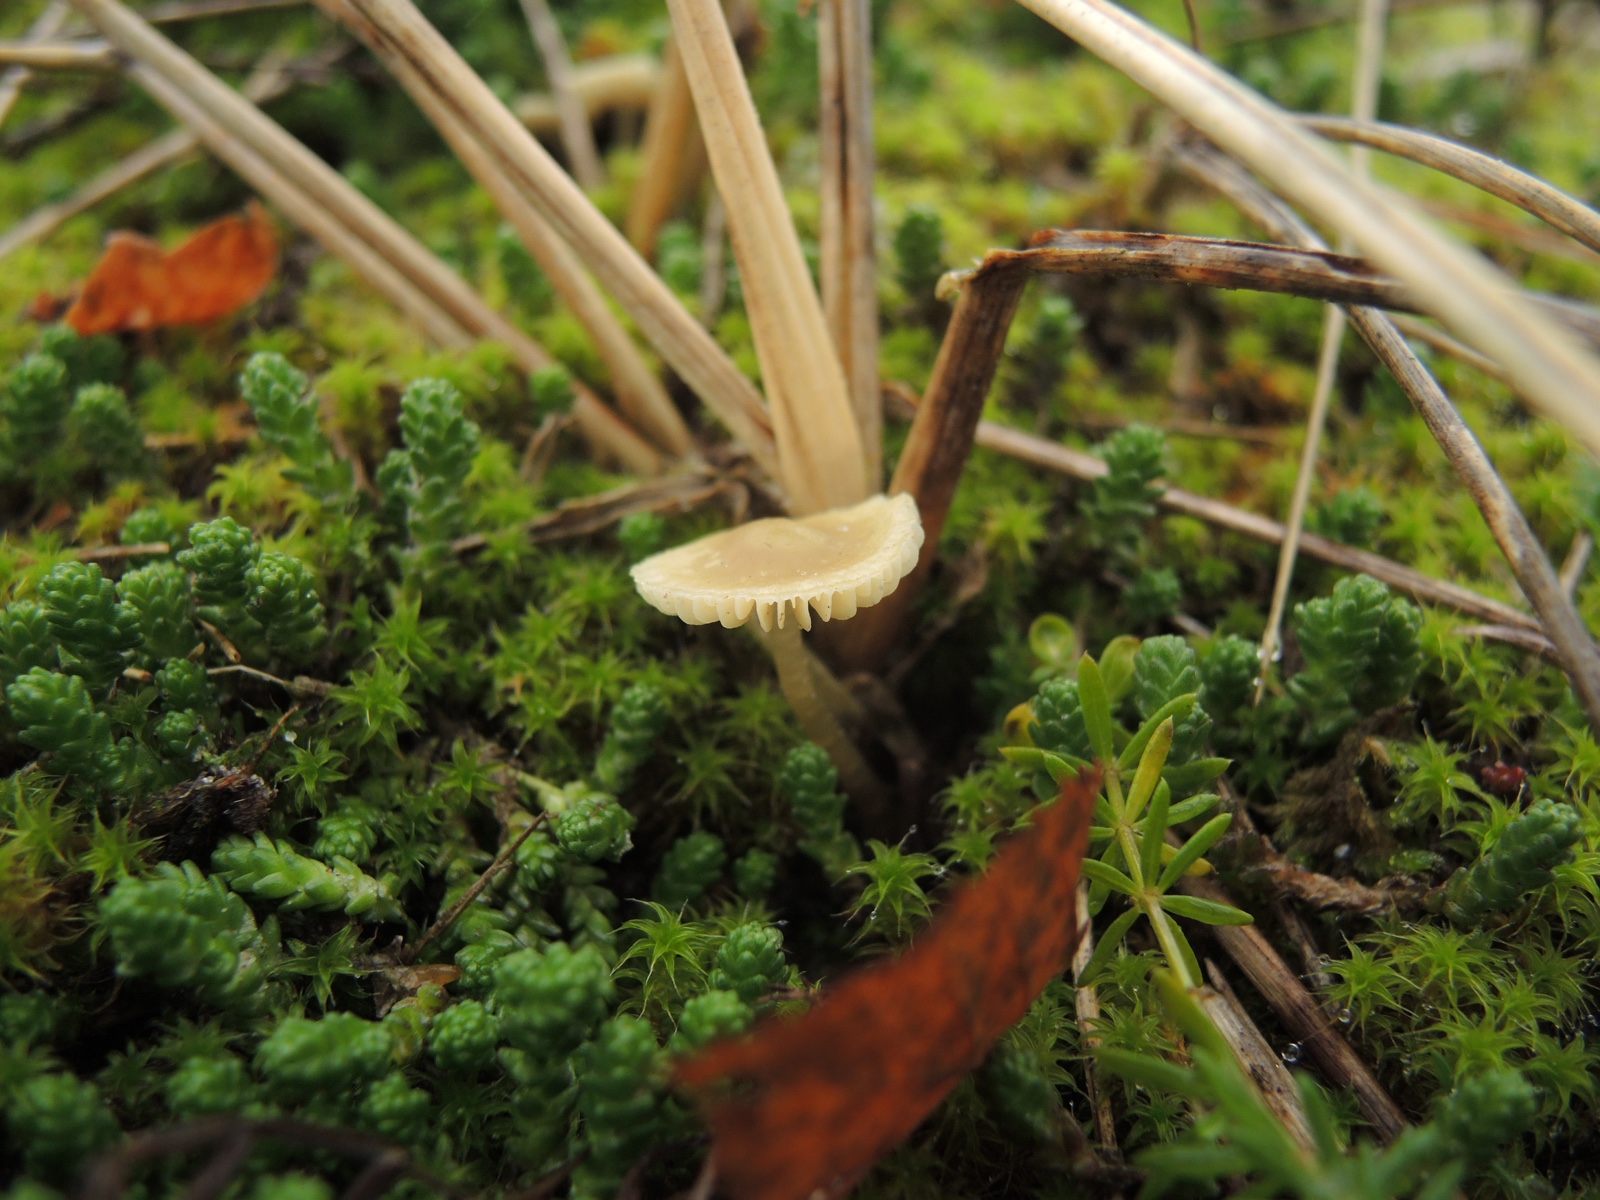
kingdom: Fungi
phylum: Basidiomycota
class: Agaricomycetes
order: Agaricales
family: Mycenaceae
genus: Mycena
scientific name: Mycena chlorantha
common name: klit-huesvamp
